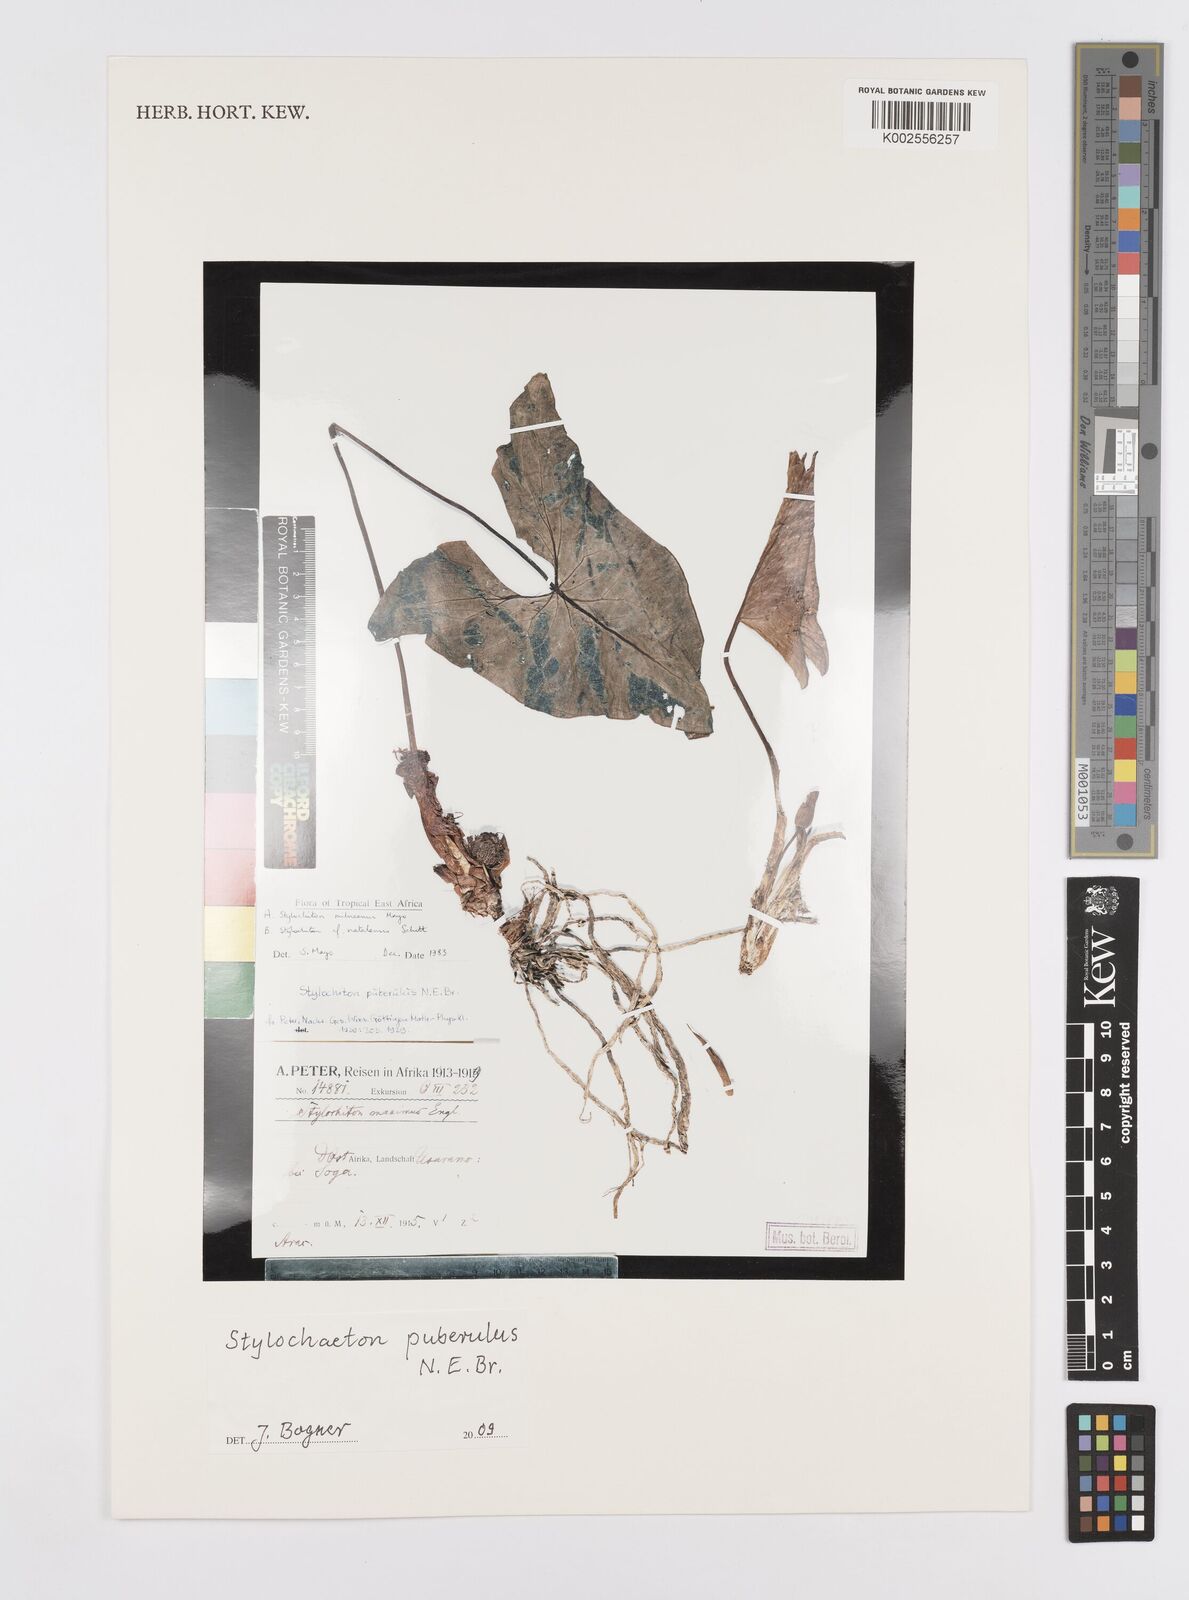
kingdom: Plantae
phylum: Tracheophyta
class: Liliopsida
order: Alismatales
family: Araceae
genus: Stylochaeton
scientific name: Stylochaeton puberulum
